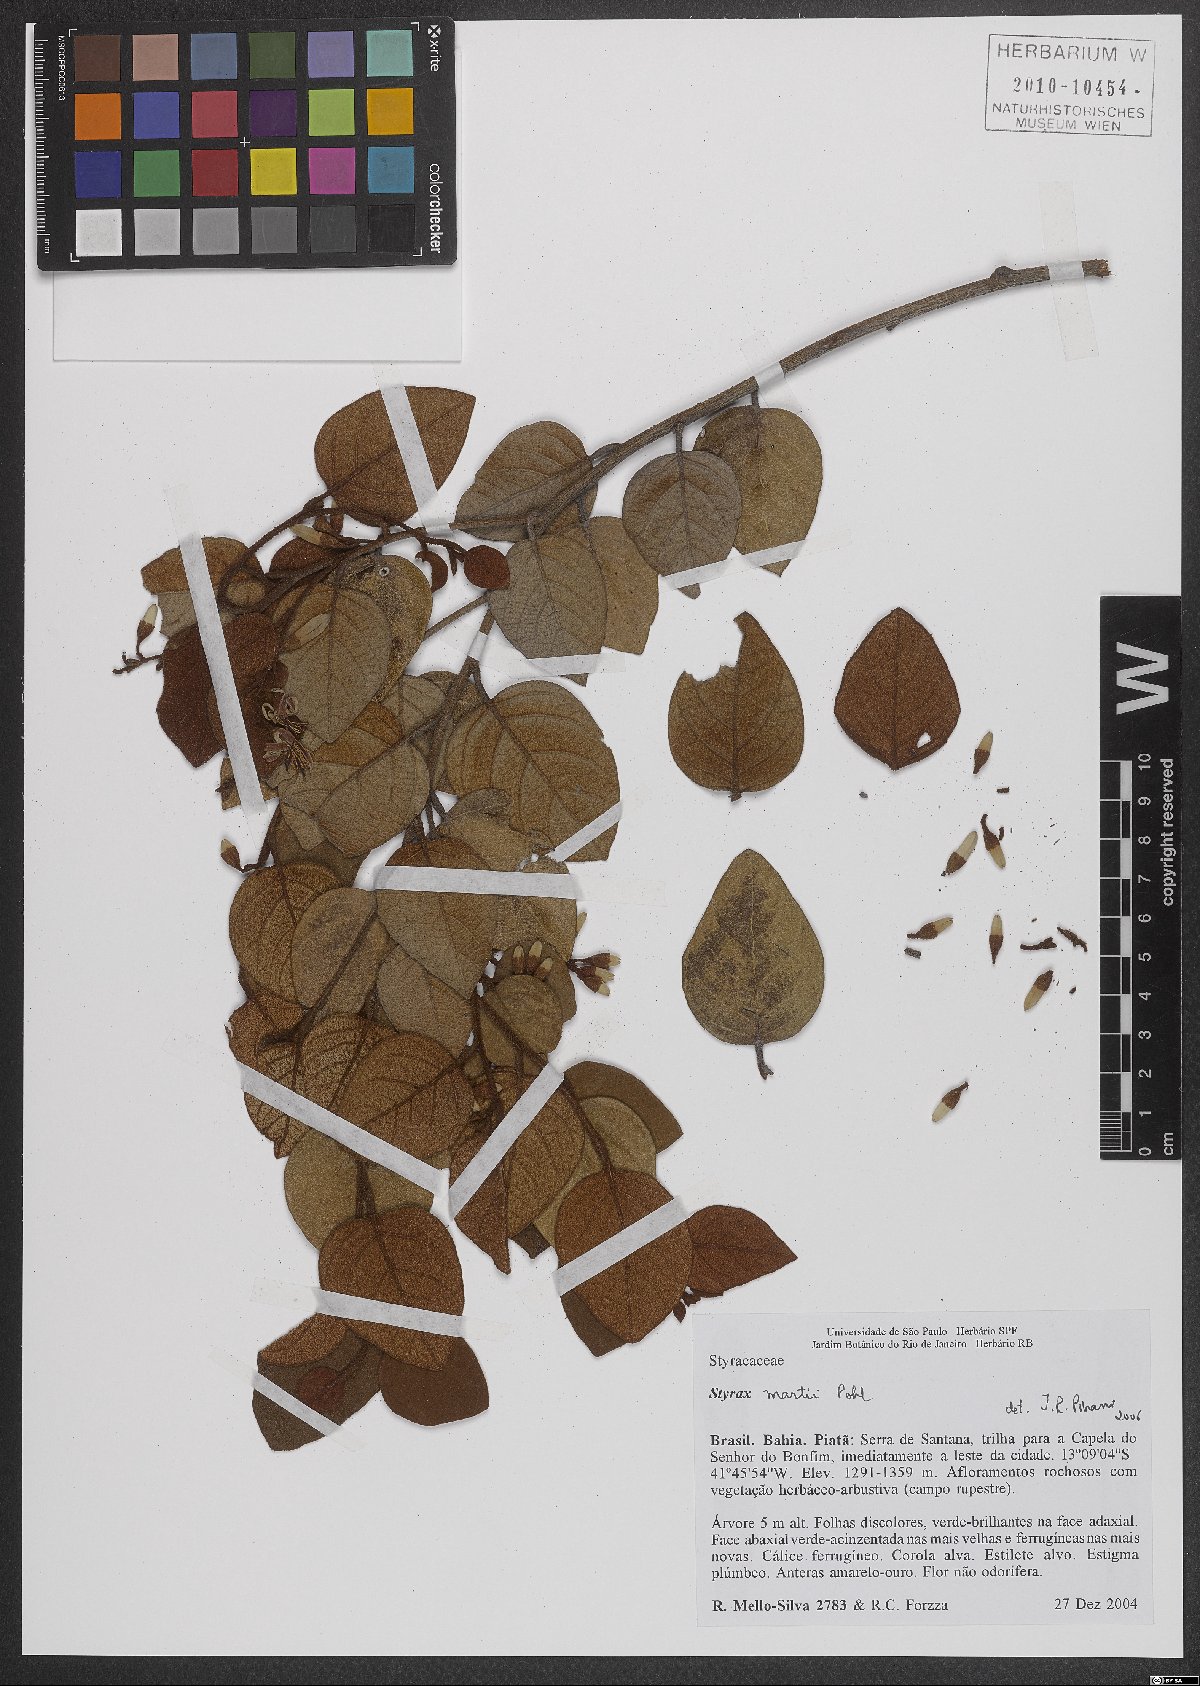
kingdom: Plantae
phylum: Tracheophyta
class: Magnoliopsida
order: Ericales
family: Styracaceae
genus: Styrax
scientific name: Styrax martii
